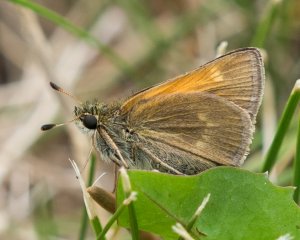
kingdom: Animalia
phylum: Arthropoda
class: Insecta
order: Lepidoptera
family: Hesperiidae
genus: Polites
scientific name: Polites themistocles
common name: Tawny-edged Skipper
